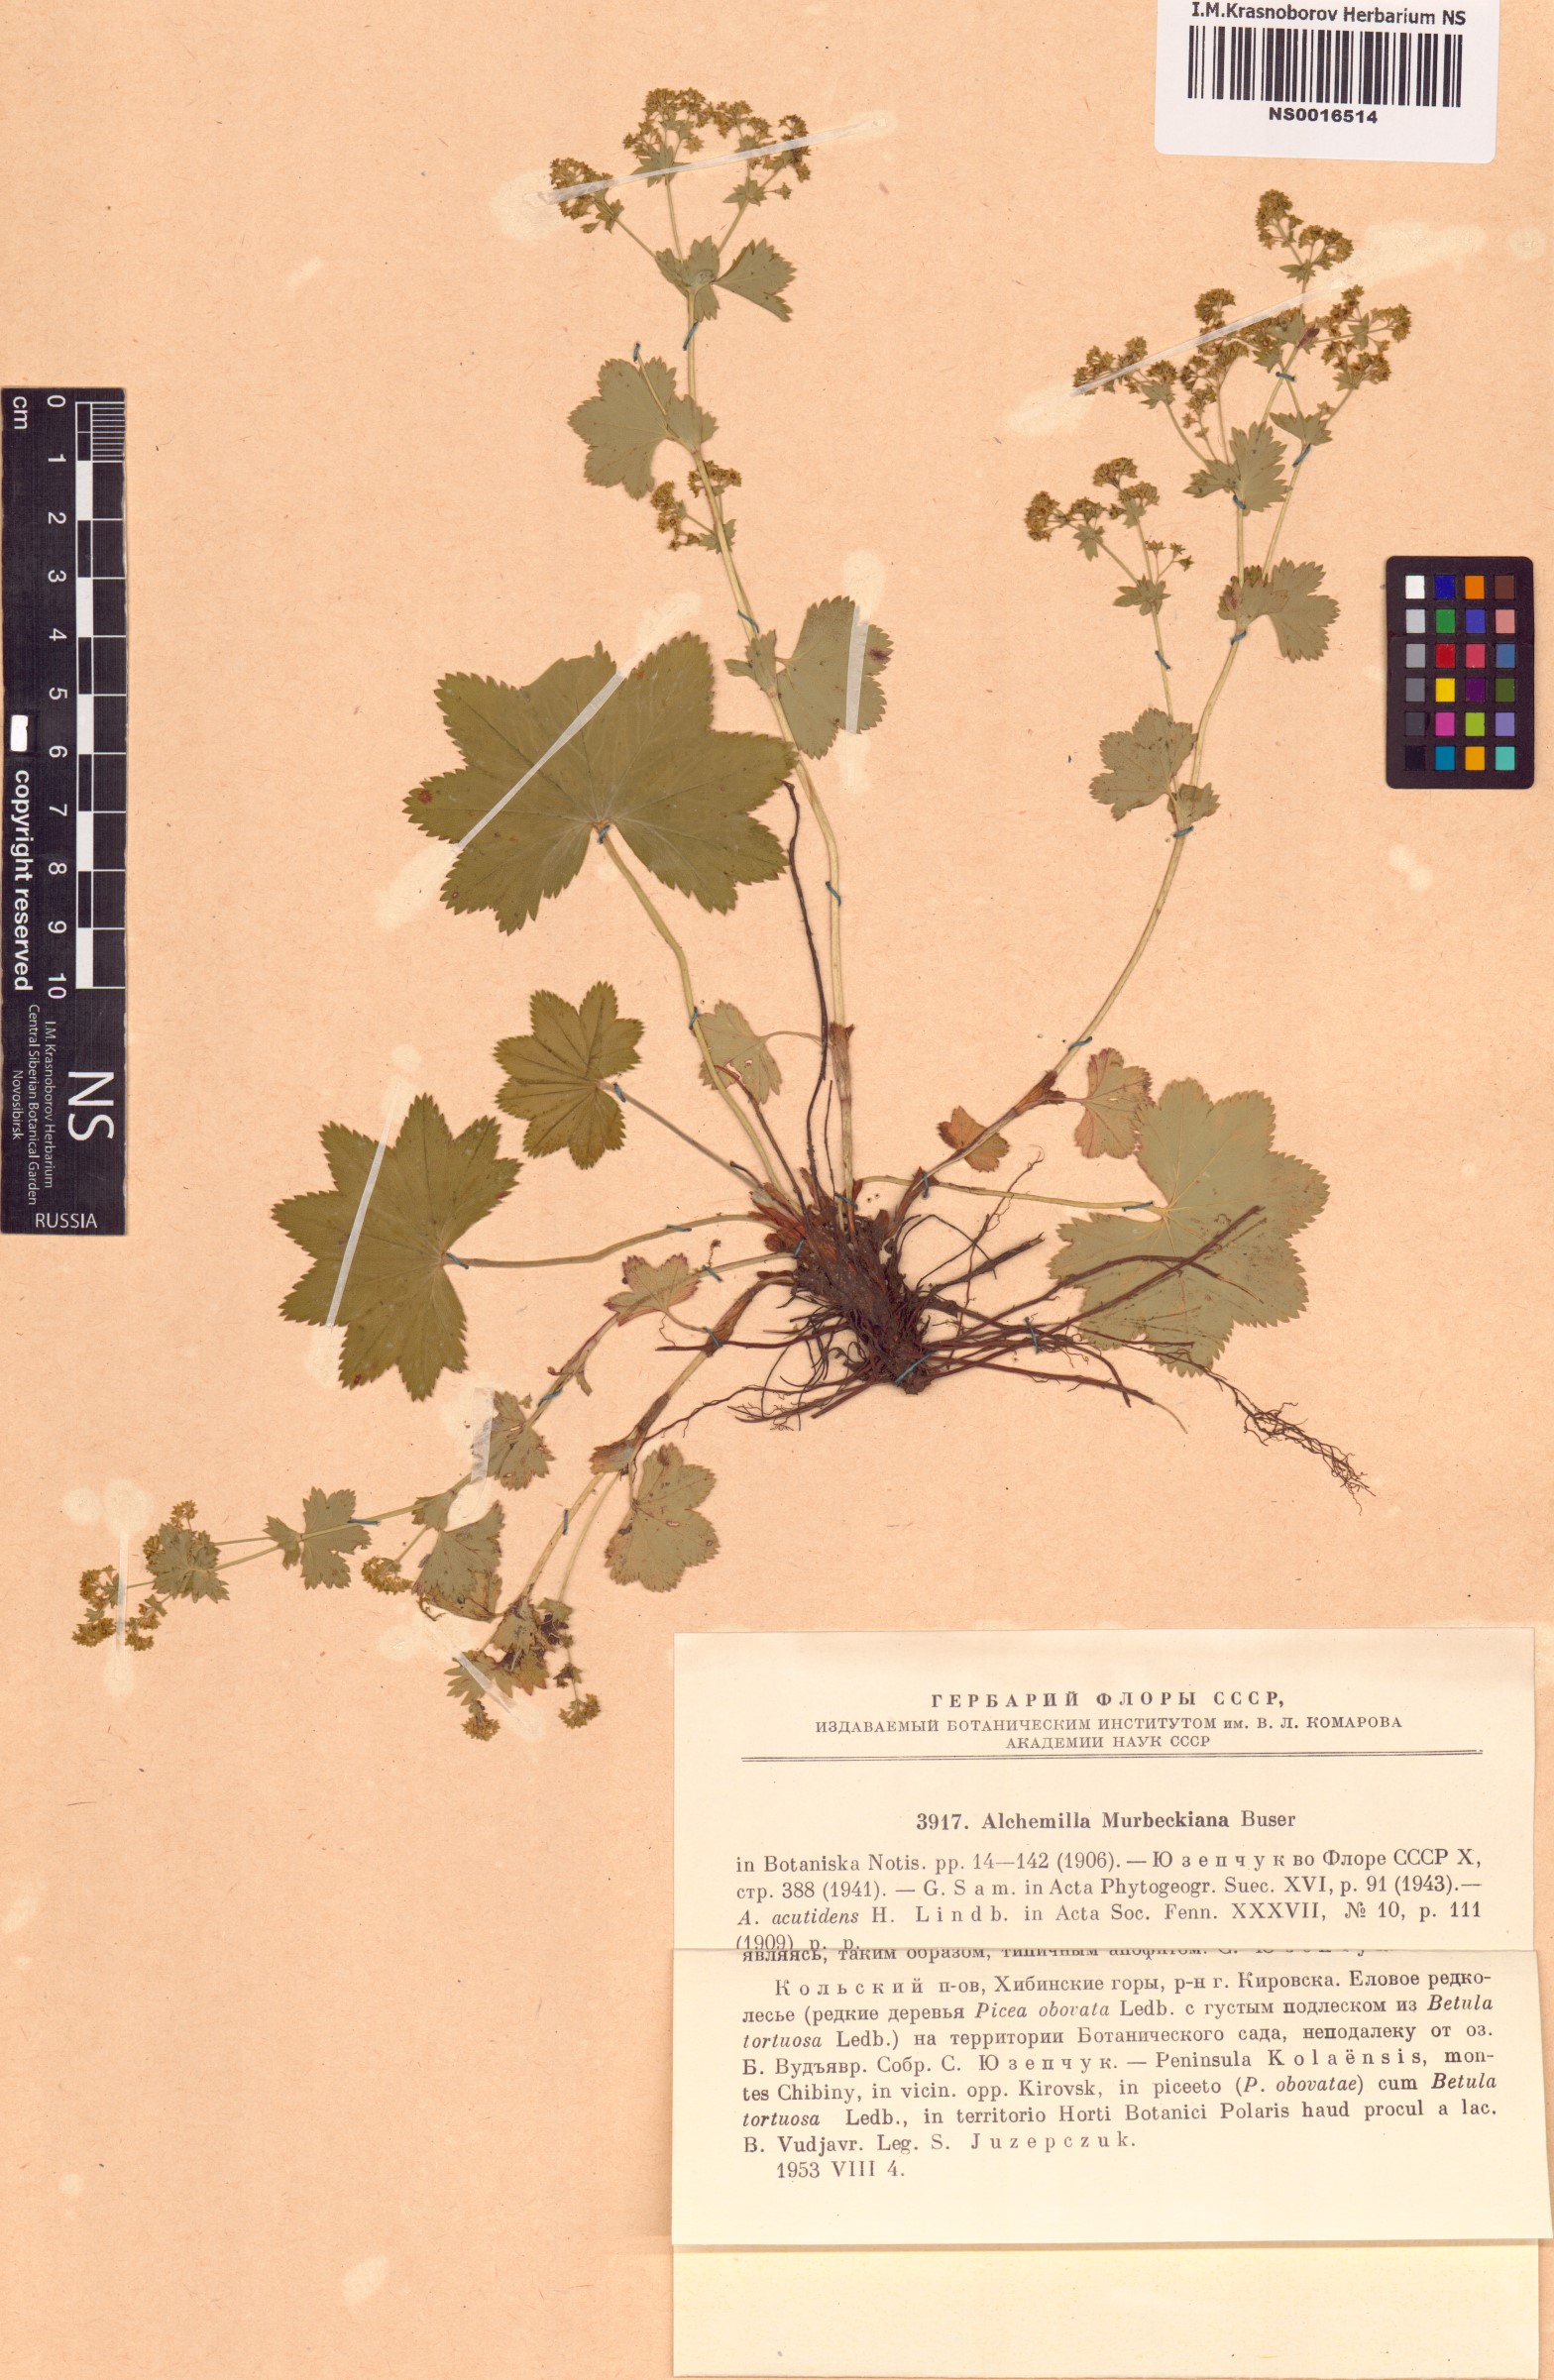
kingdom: Plantae
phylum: Tracheophyta
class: Magnoliopsida
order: Rosales
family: Rosaceae
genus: Alchemilla
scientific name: Alchemilla murbeckiana
